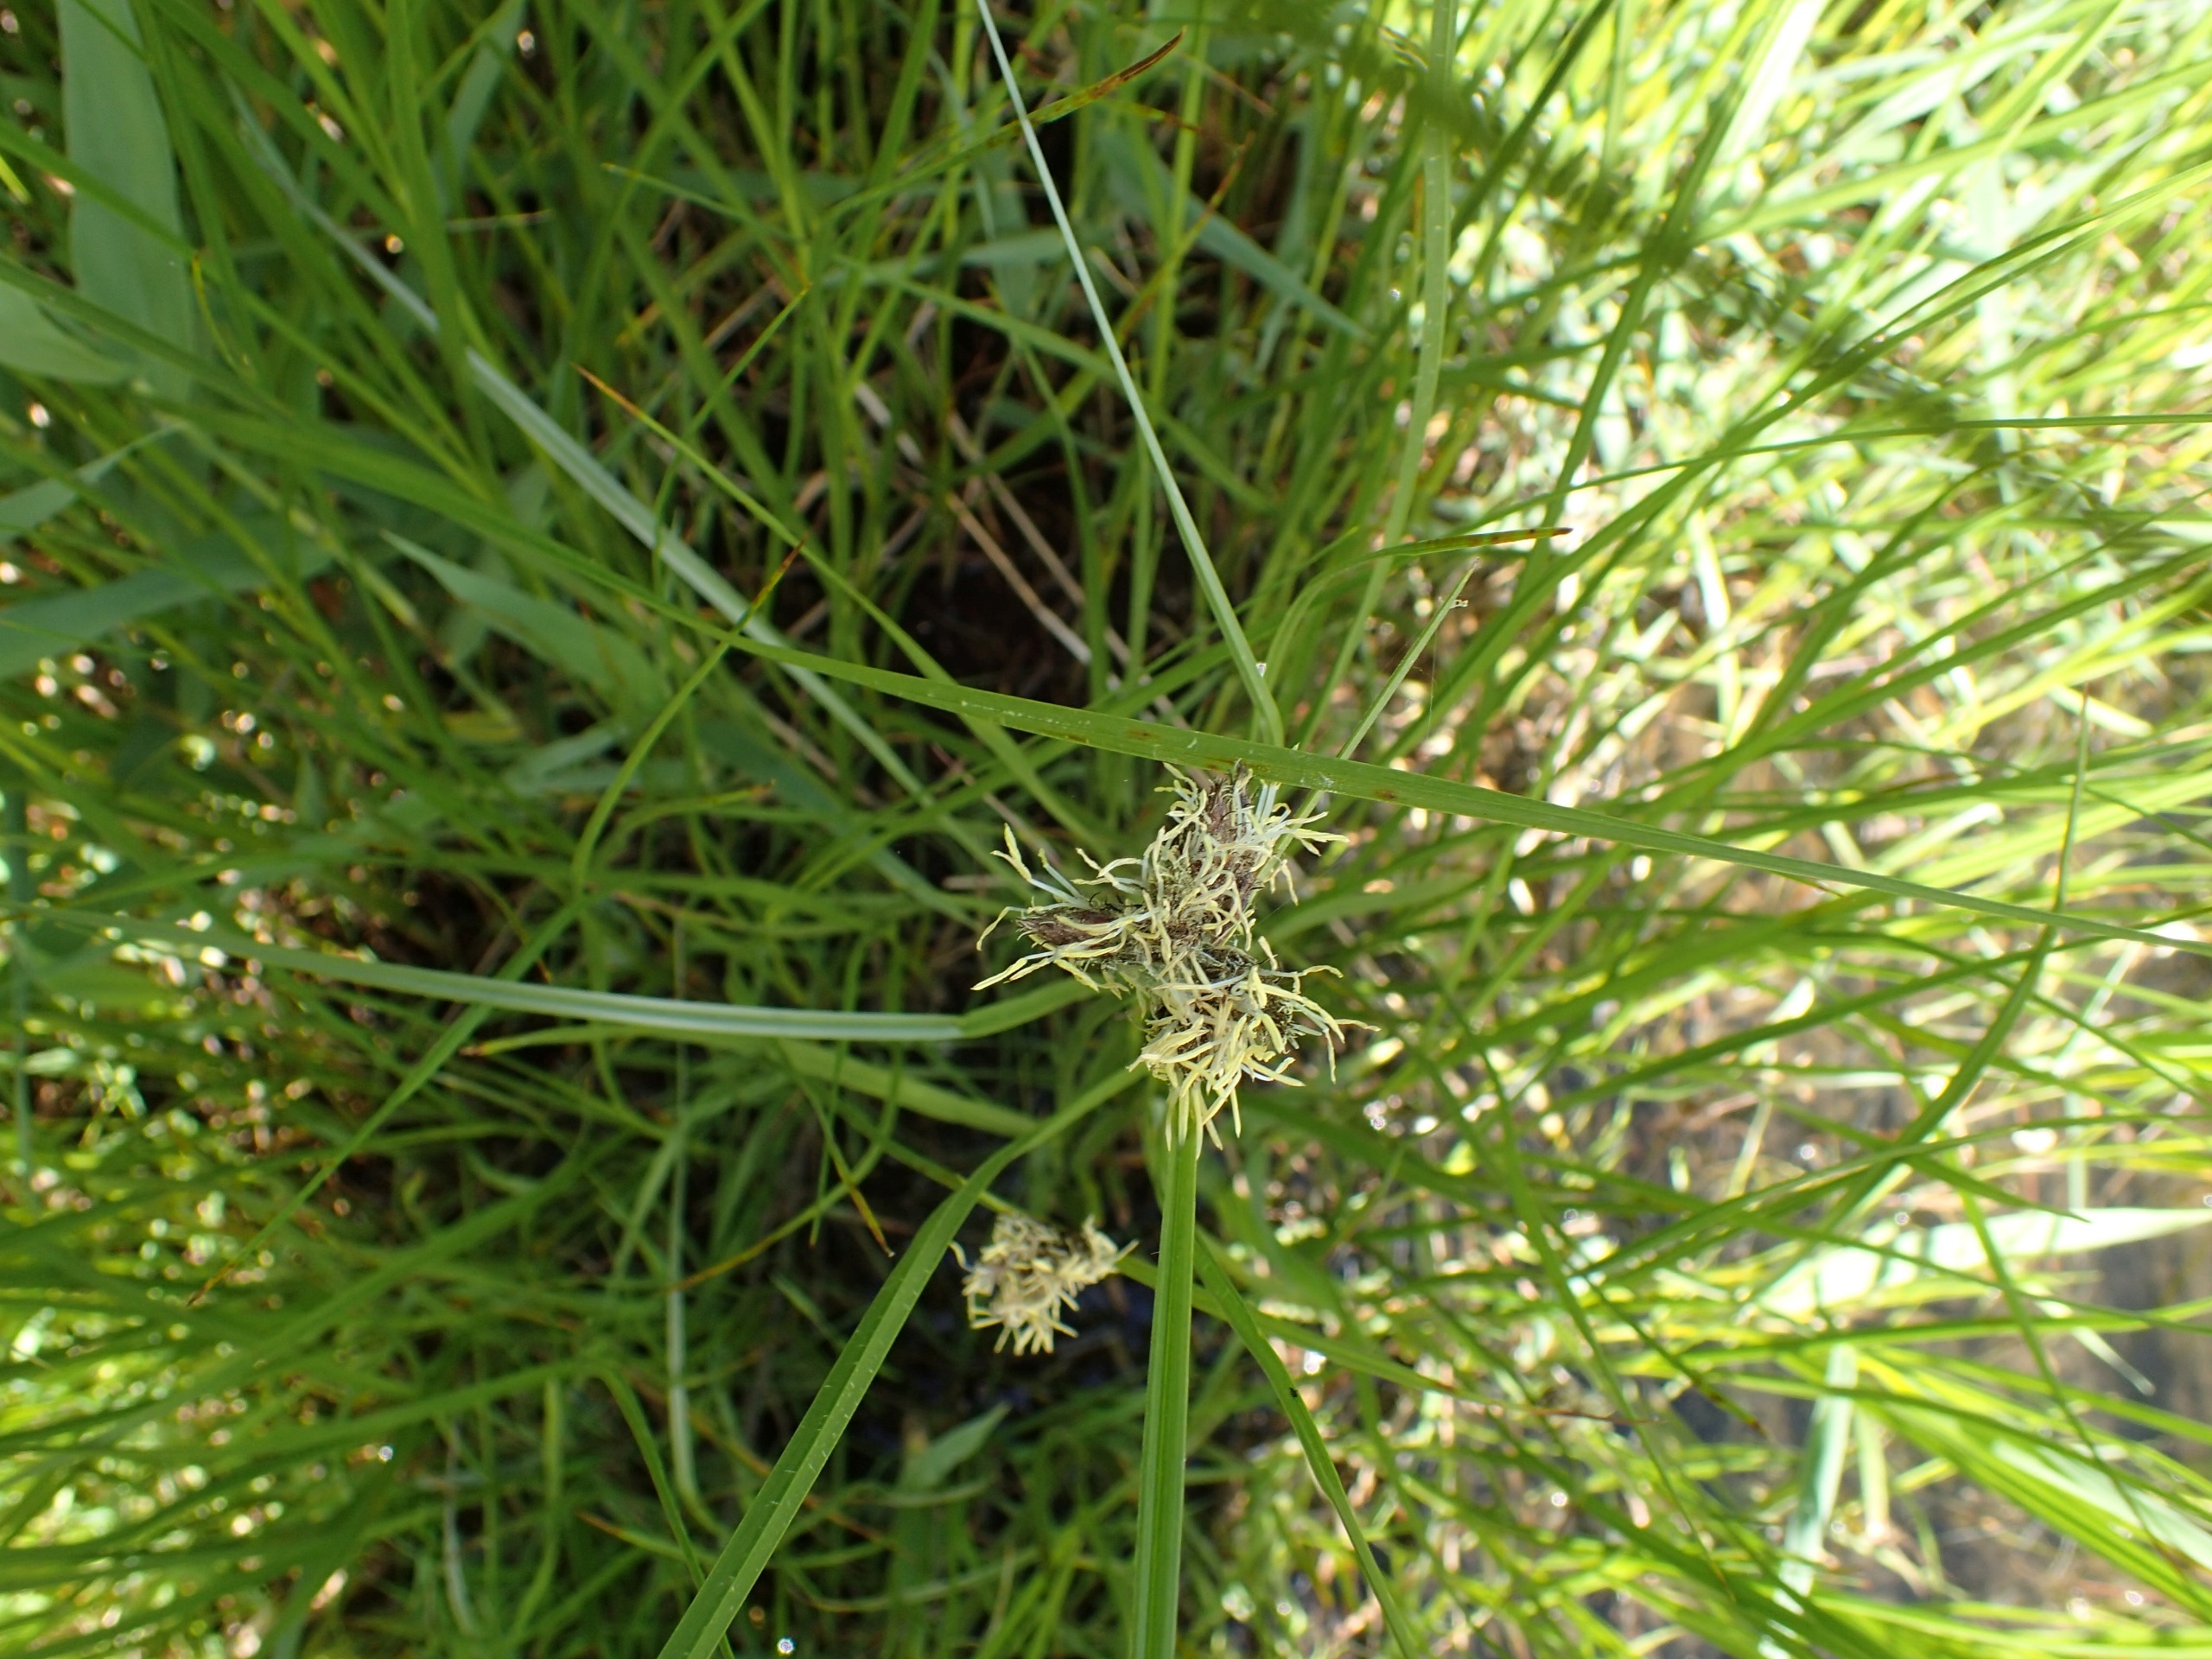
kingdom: Plantae
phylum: Tracheophyta
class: Liliopsida
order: Poales
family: Cyperaceae
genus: Bolboschoenus
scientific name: Bolboschoenus maritimus
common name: Strand-kogleaks
